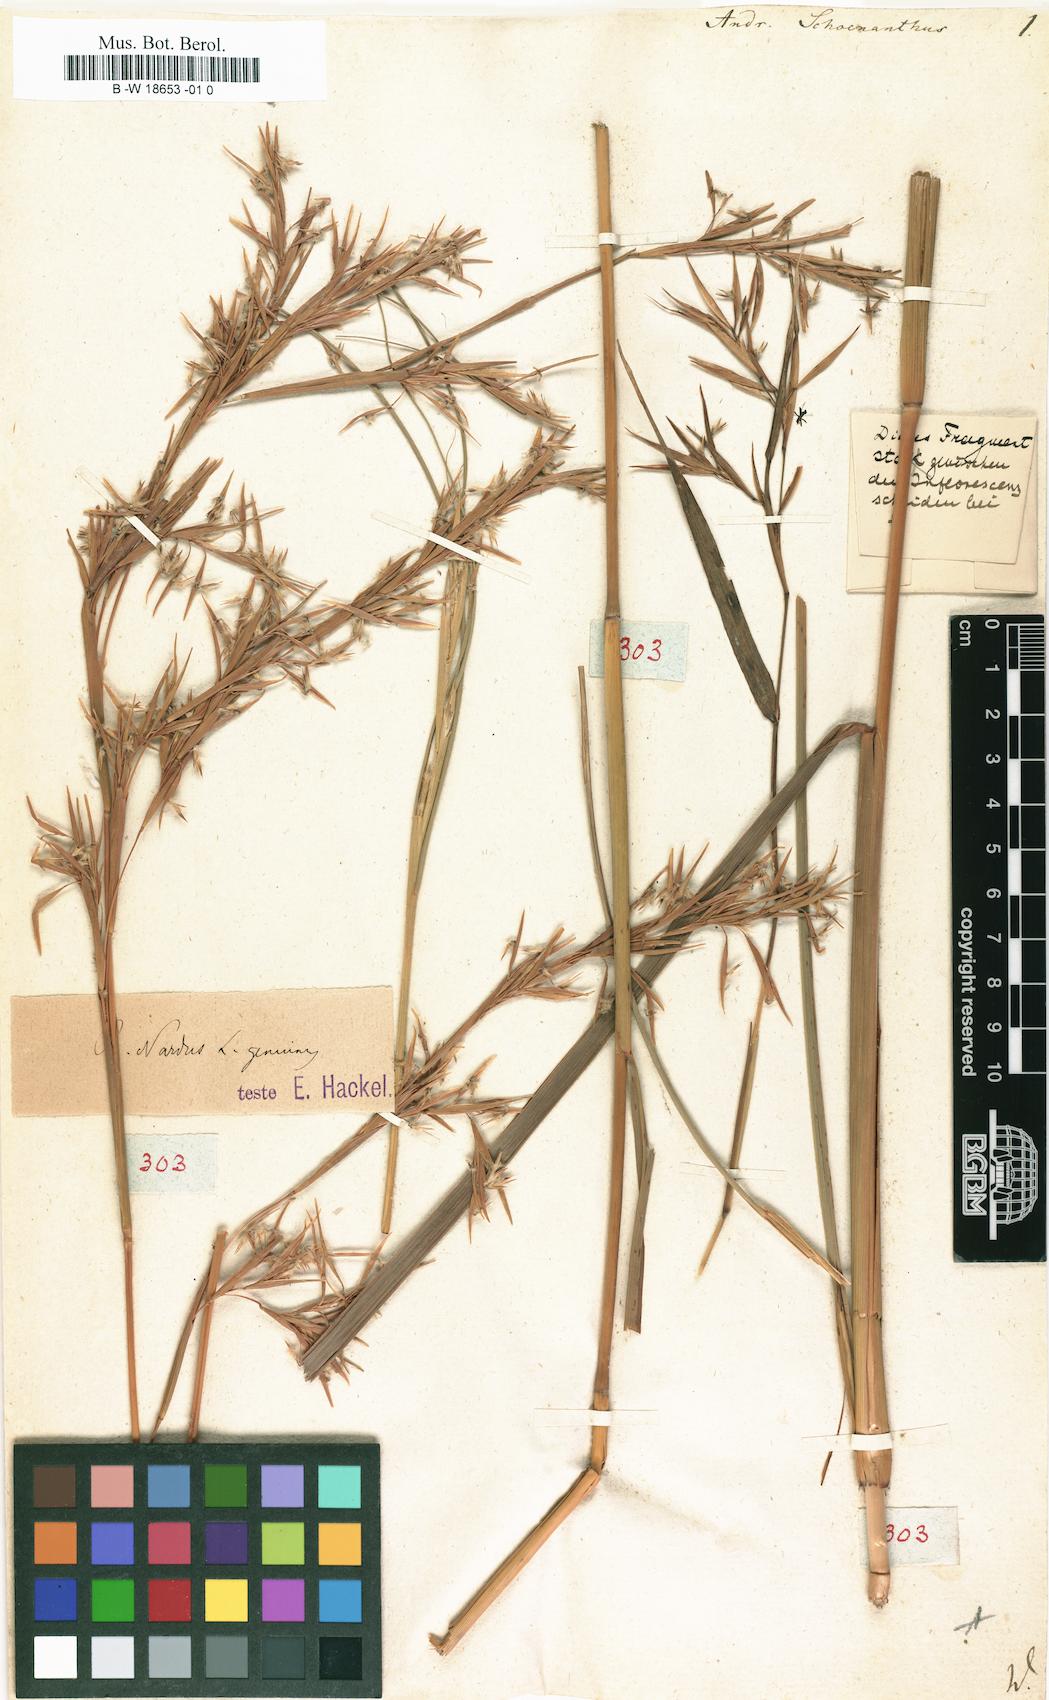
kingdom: Plantae
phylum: Tracheophyta
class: Liliopsida
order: Poales
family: Poaceae
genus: Andropogon
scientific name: Andropogon schoenanthus
